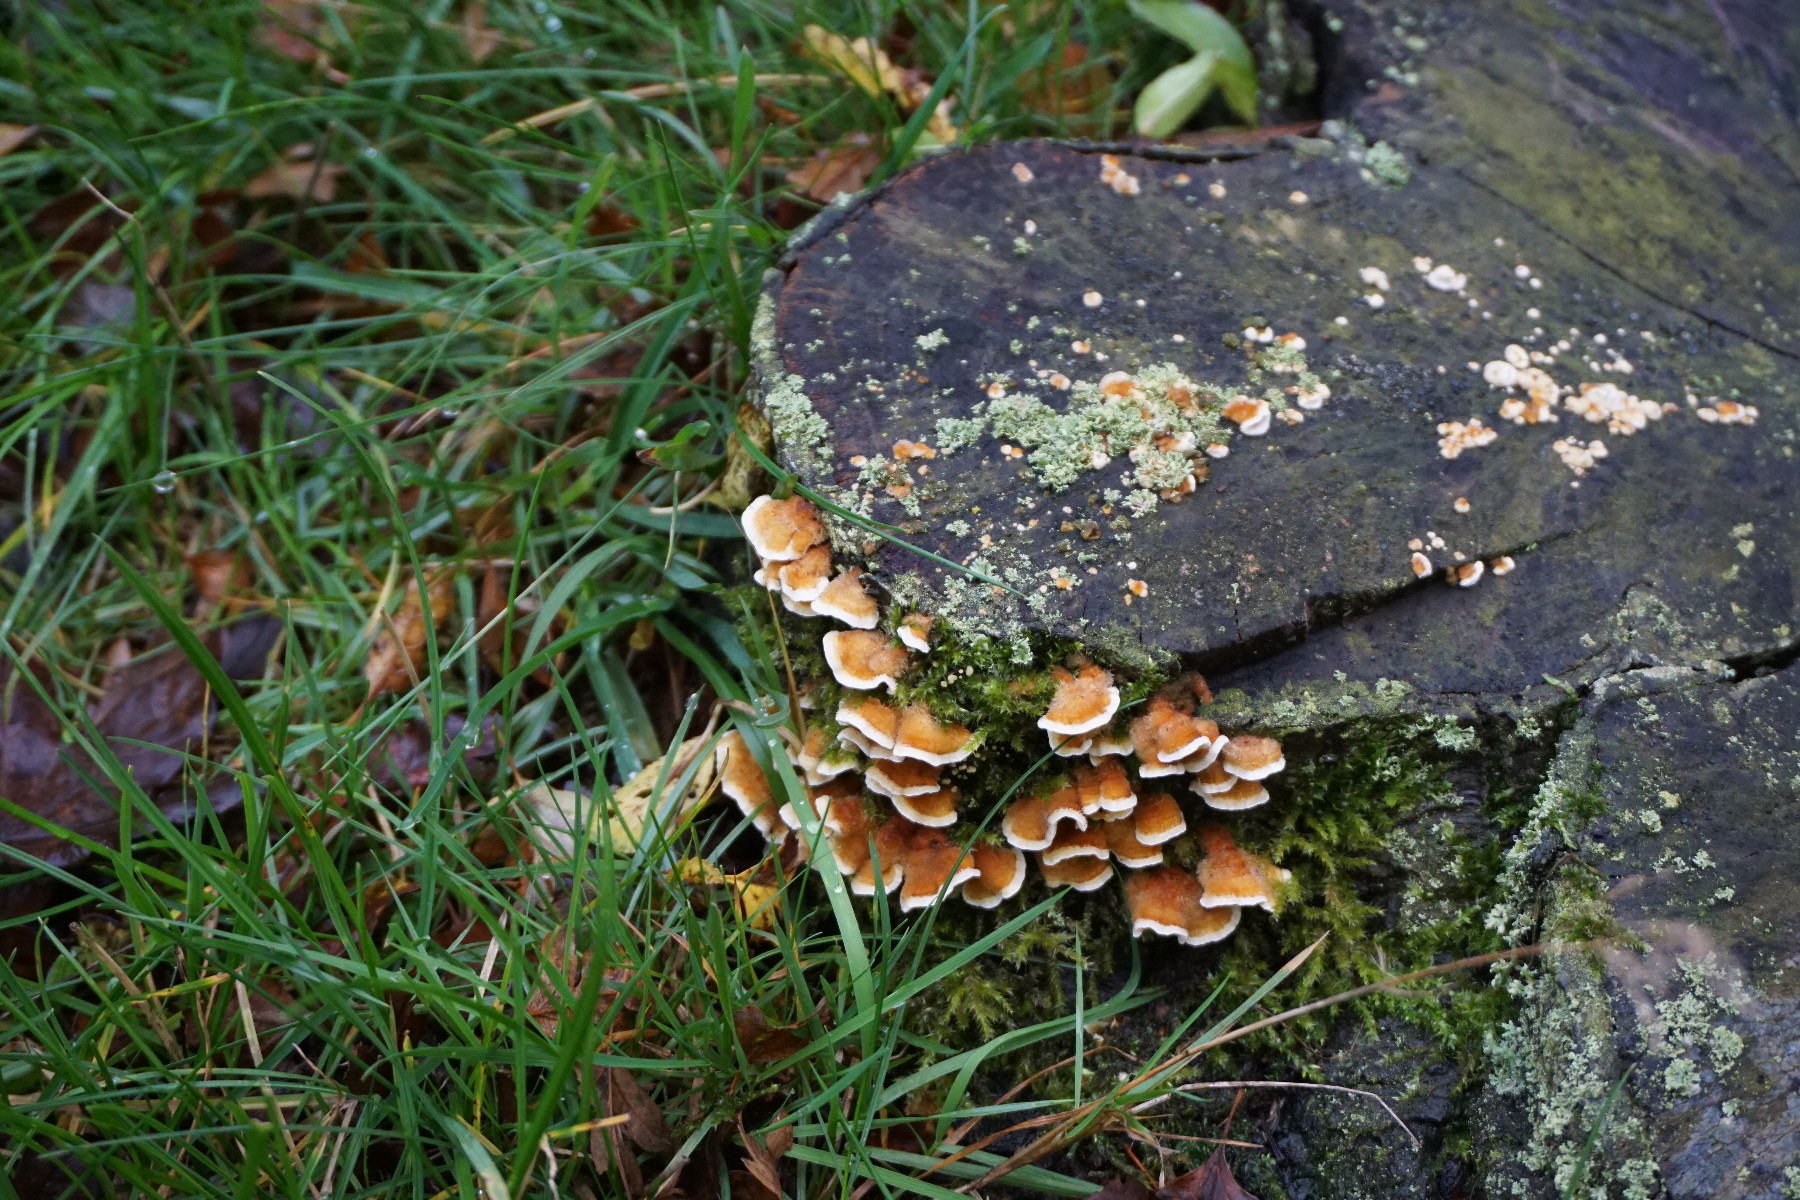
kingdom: Fungi
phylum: Basidiomycota
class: Agaricomycetes
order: Amylocorticiales
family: Amylocorticiaceae
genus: Plicaturopsis
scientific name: Plicaturopsis crispa
